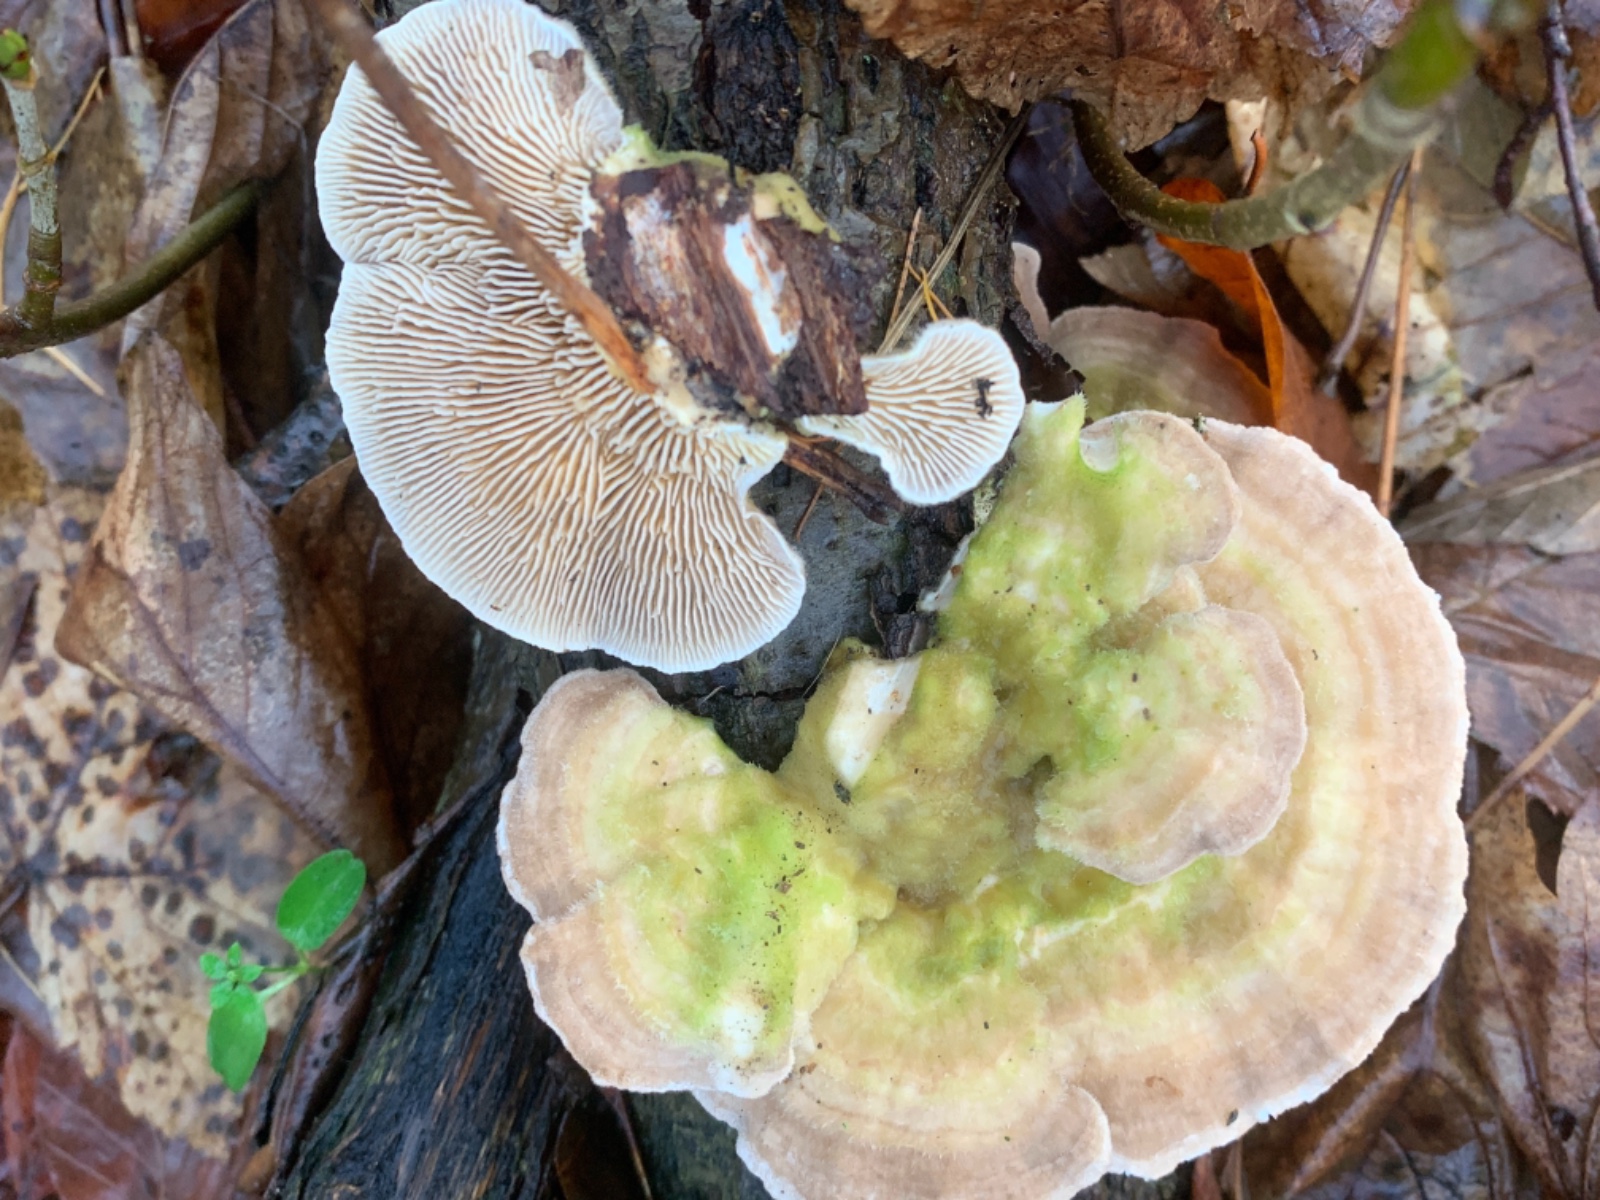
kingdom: Fungi
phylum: Basidiomycota
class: Agaricomycetes
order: Polyporales
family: Polyporaceae
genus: Trametes
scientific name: Trametes hirsuta
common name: håret læderporesvamp
